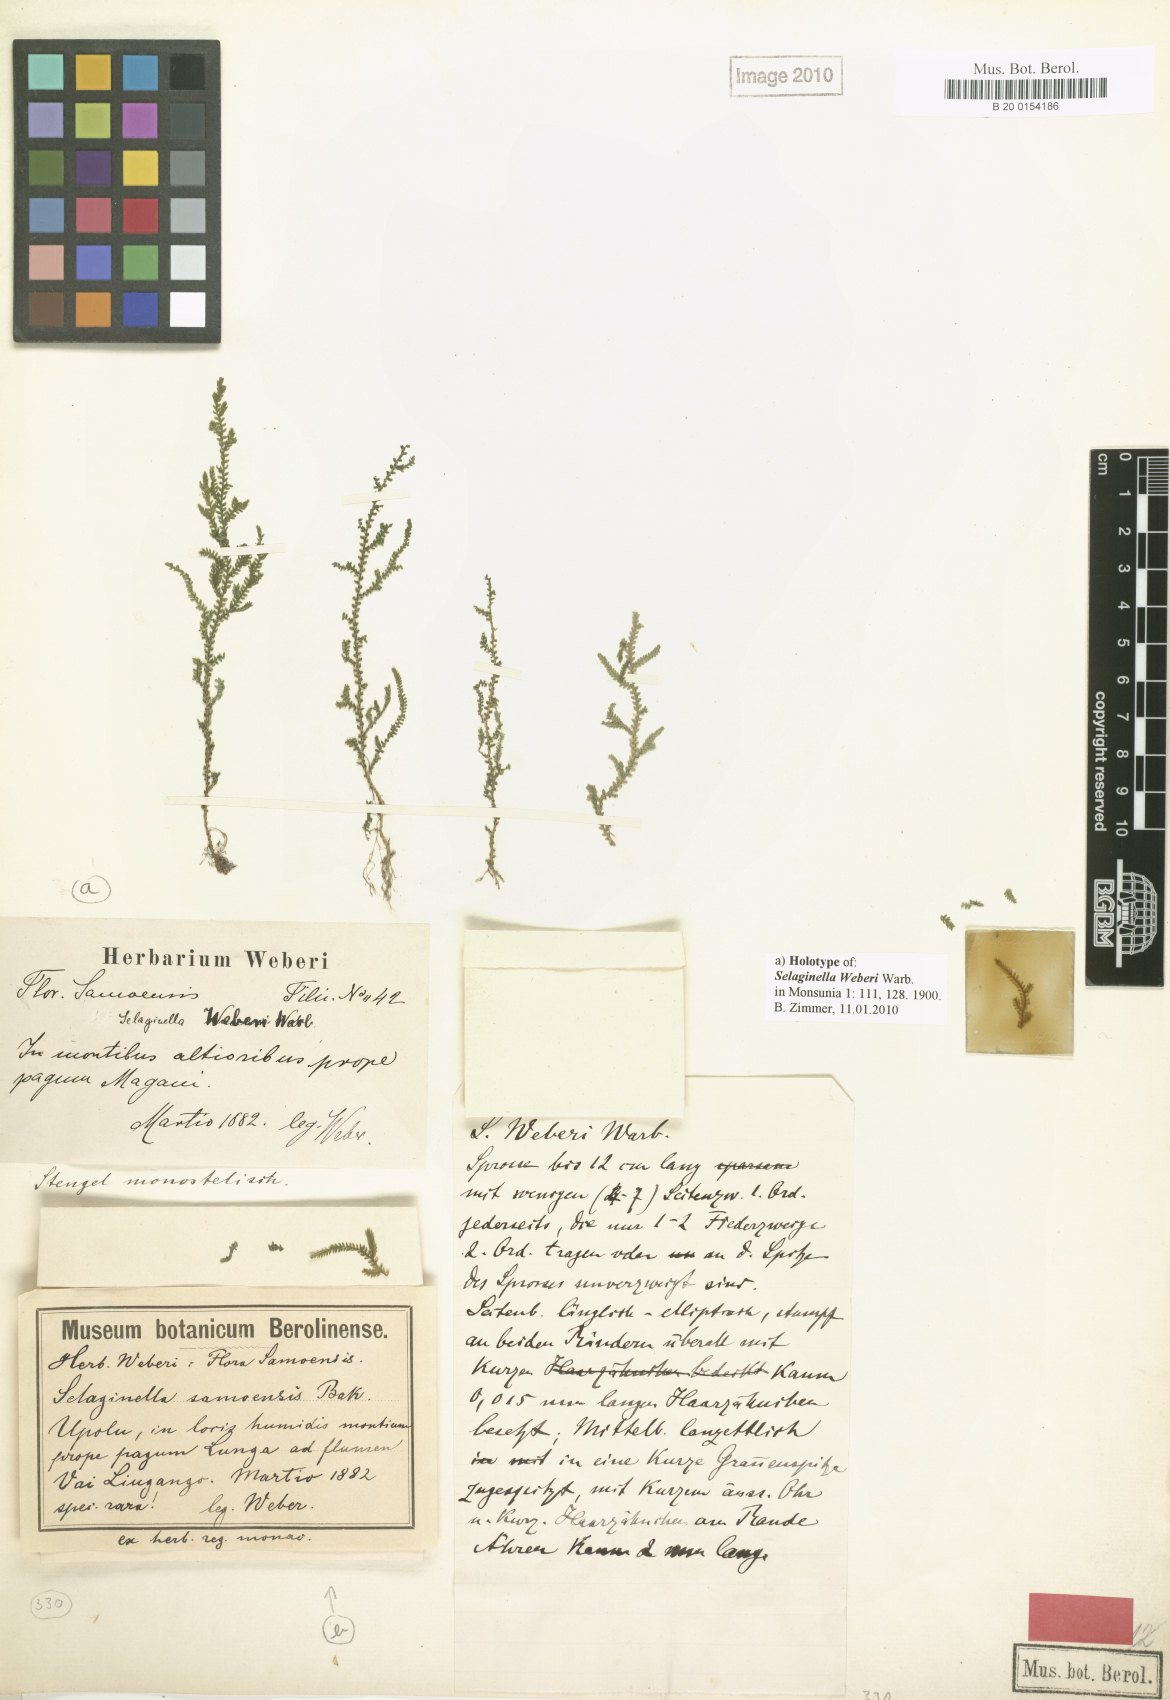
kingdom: Plantae
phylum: Tracheophyta
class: Lycopodiopsida
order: Selaginellales
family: Selaginellaceae
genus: Selaginella
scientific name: Selaginella laxa
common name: Lax spikemoss
